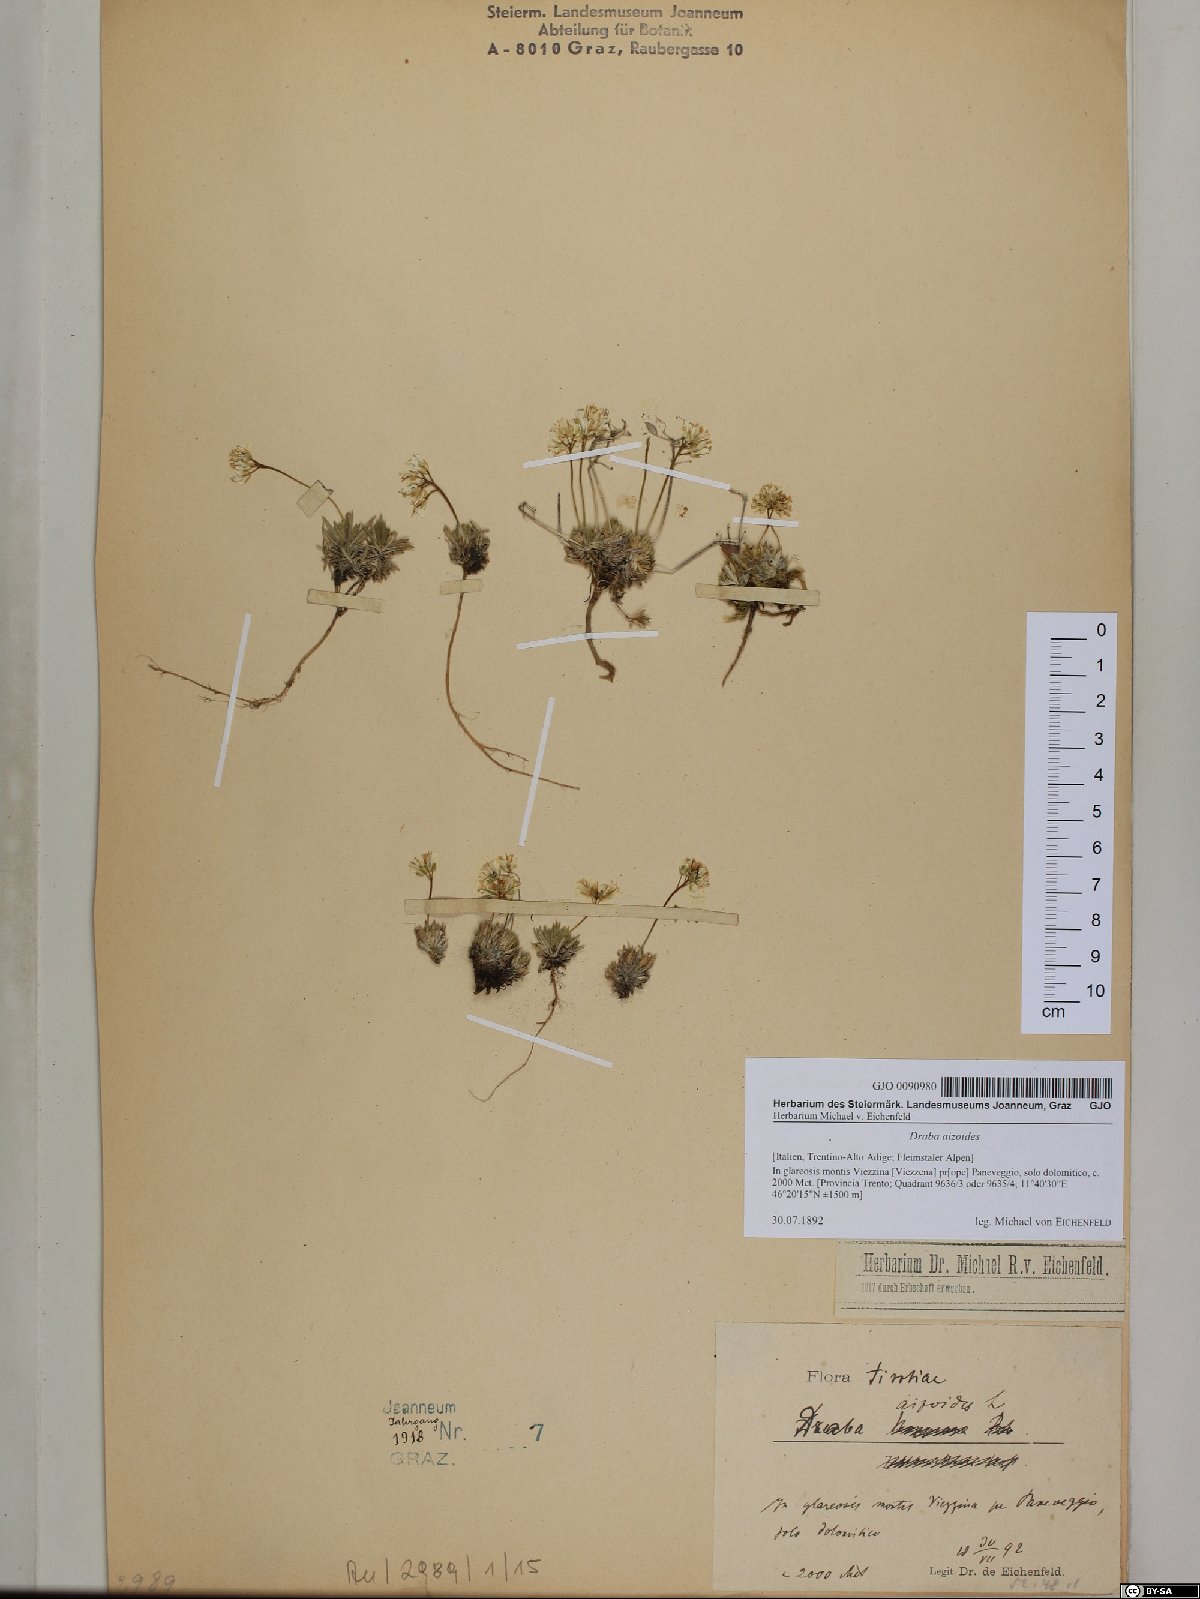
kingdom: Plantae
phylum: Tracheophyta
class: Magnoliopsida
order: Brassicales
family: Brassicaceae
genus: Draba
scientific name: Draba aizoides
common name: Yellow whitlowgrass
